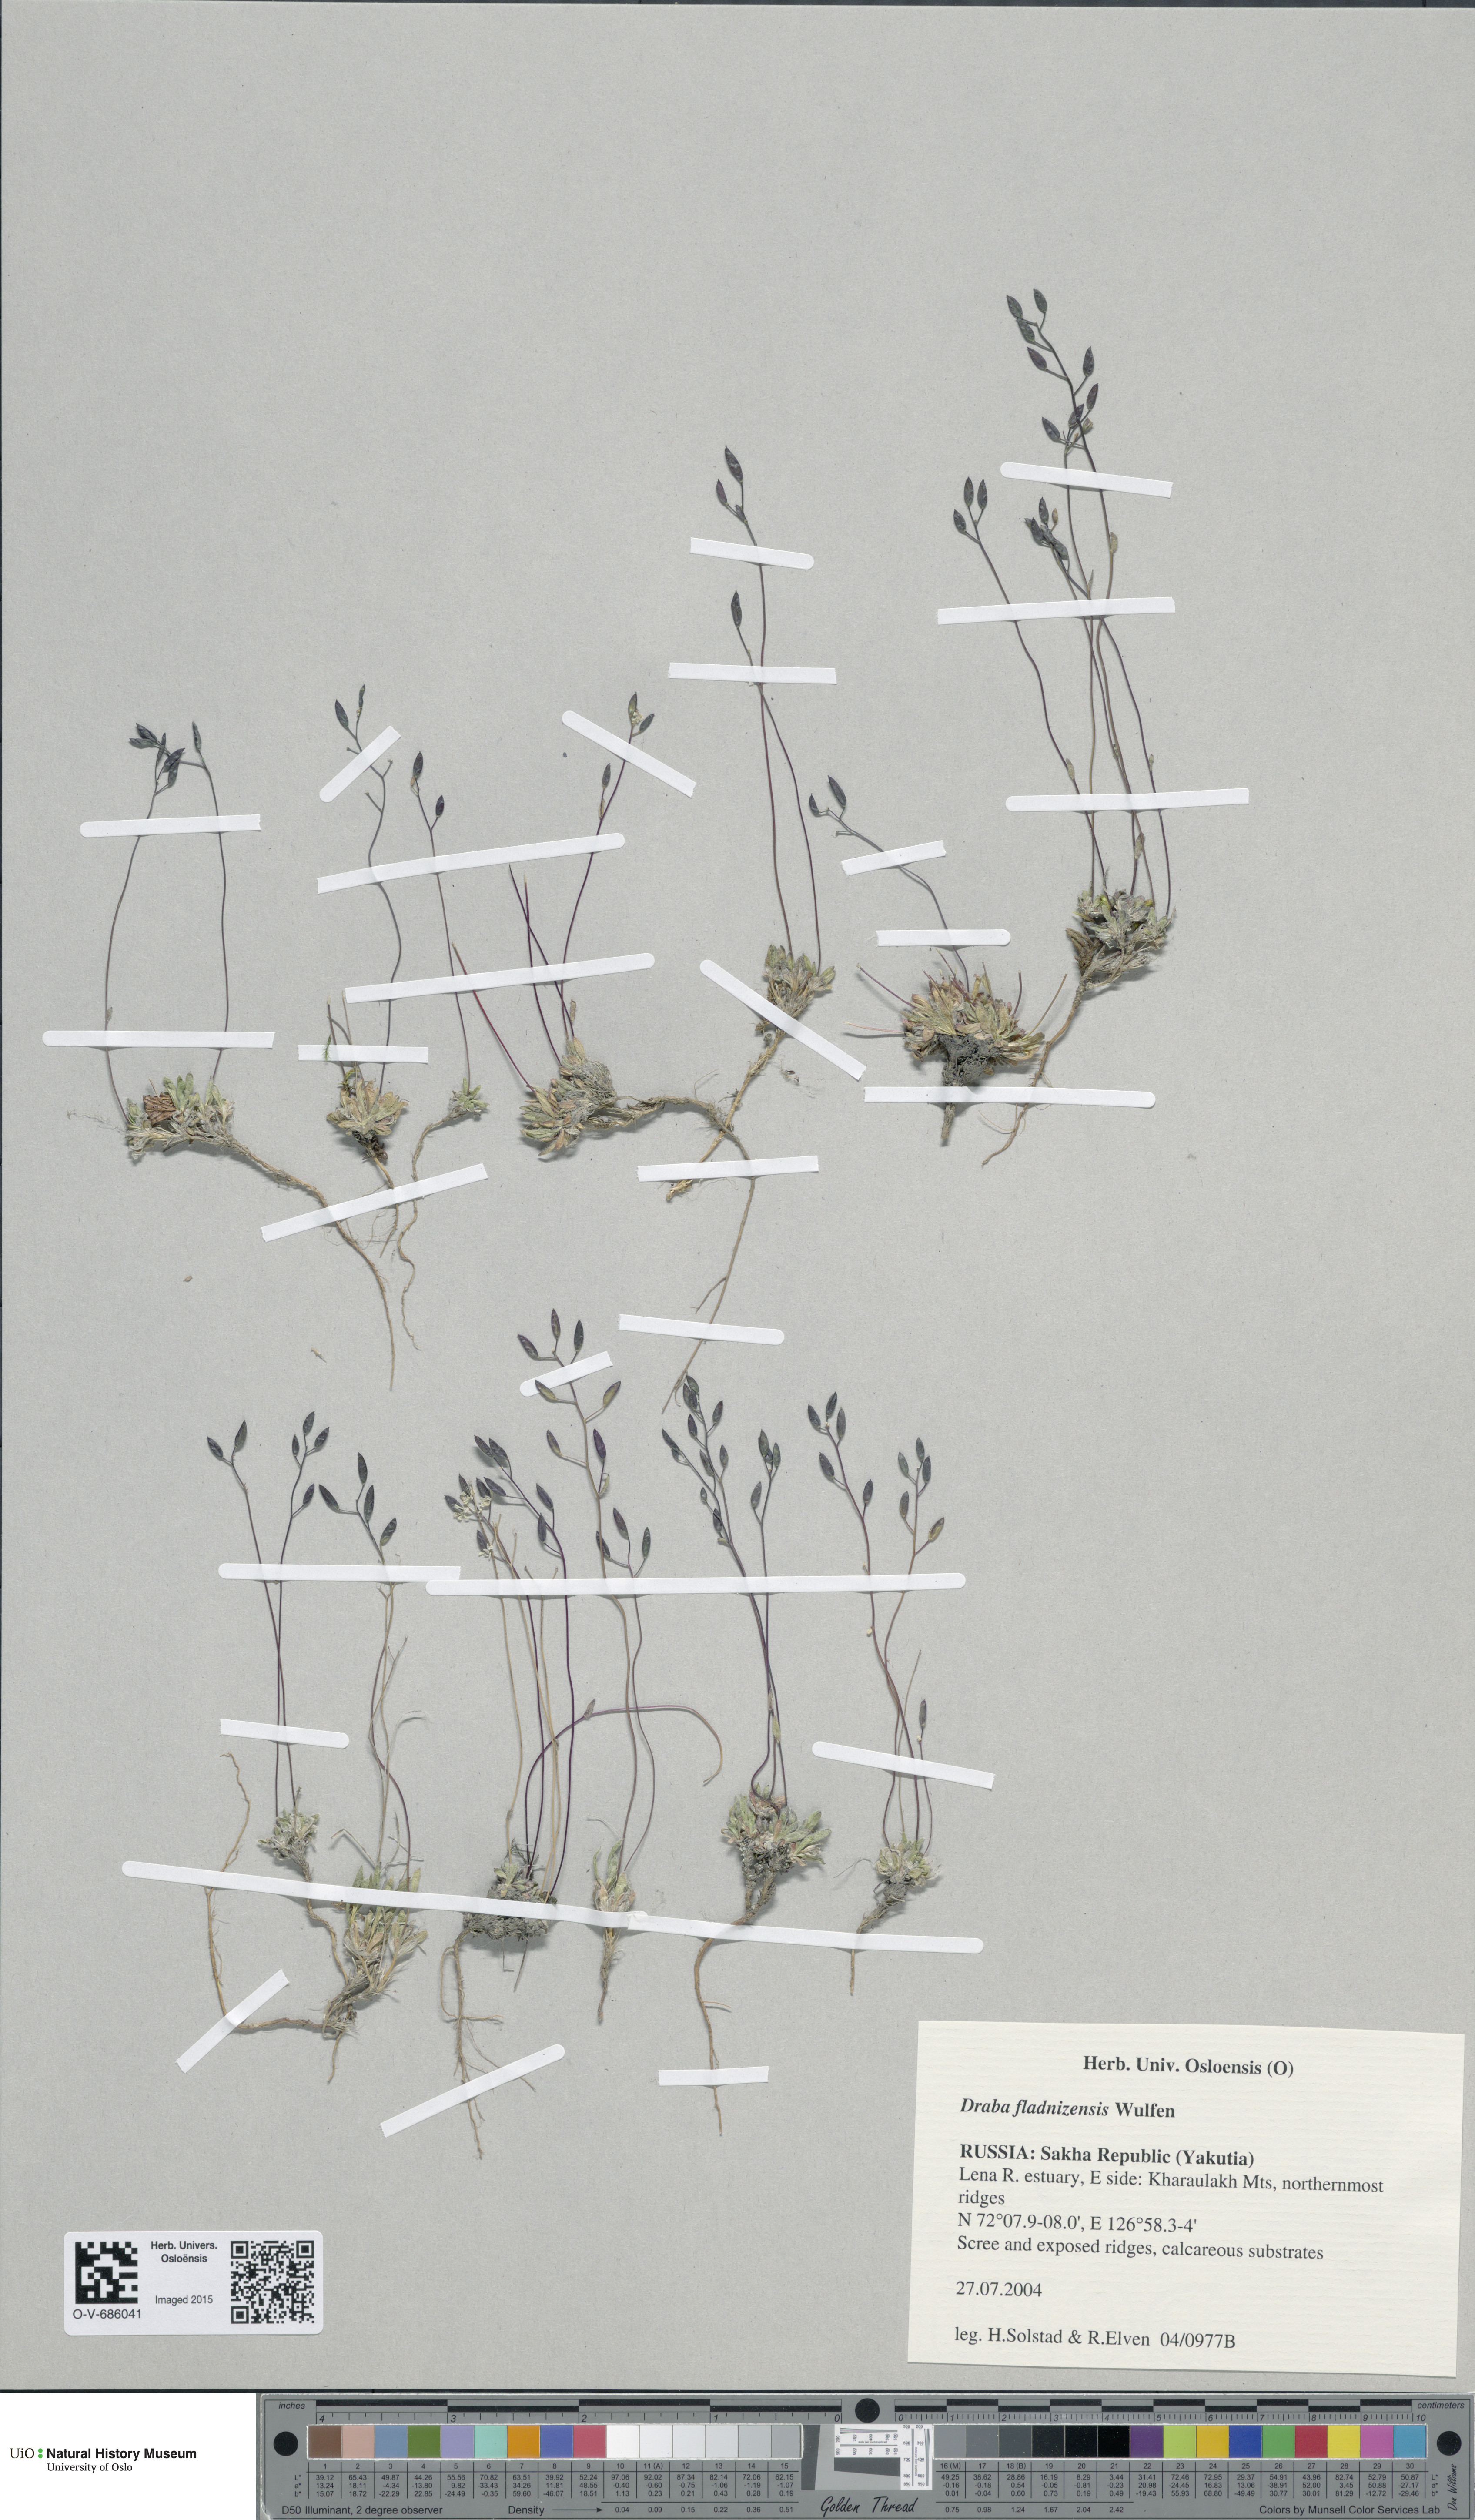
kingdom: Plantae
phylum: Tracheophyta
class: Magnoliopsida
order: Brassicales
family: Brassicaceae
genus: Draba
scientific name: Draba fladnizensis
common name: Austrian draba
